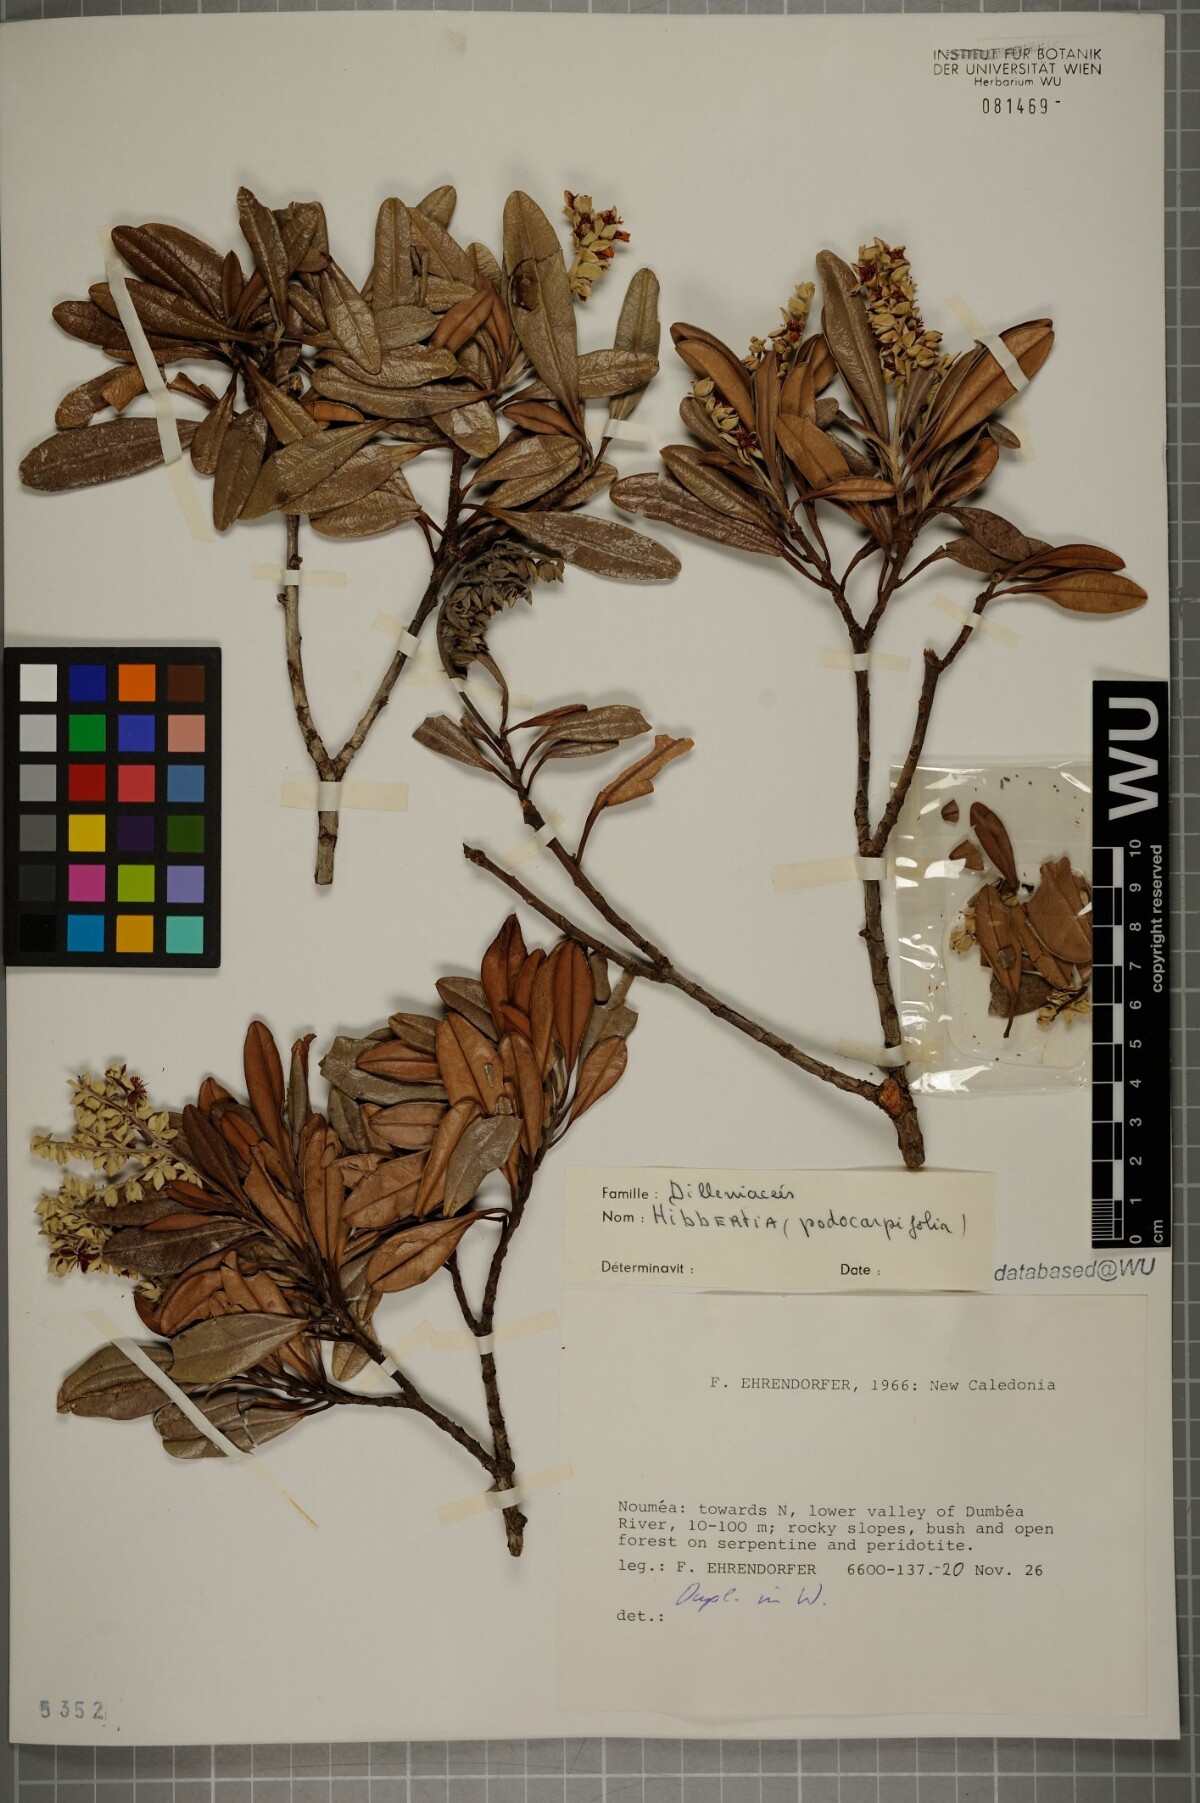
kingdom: Plantae
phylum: Tracheophyta
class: Magnoliopsida
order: Dilleniales
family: Dilleniaceae
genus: Hibbertia
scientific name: Hibbertia podocarpifolia
